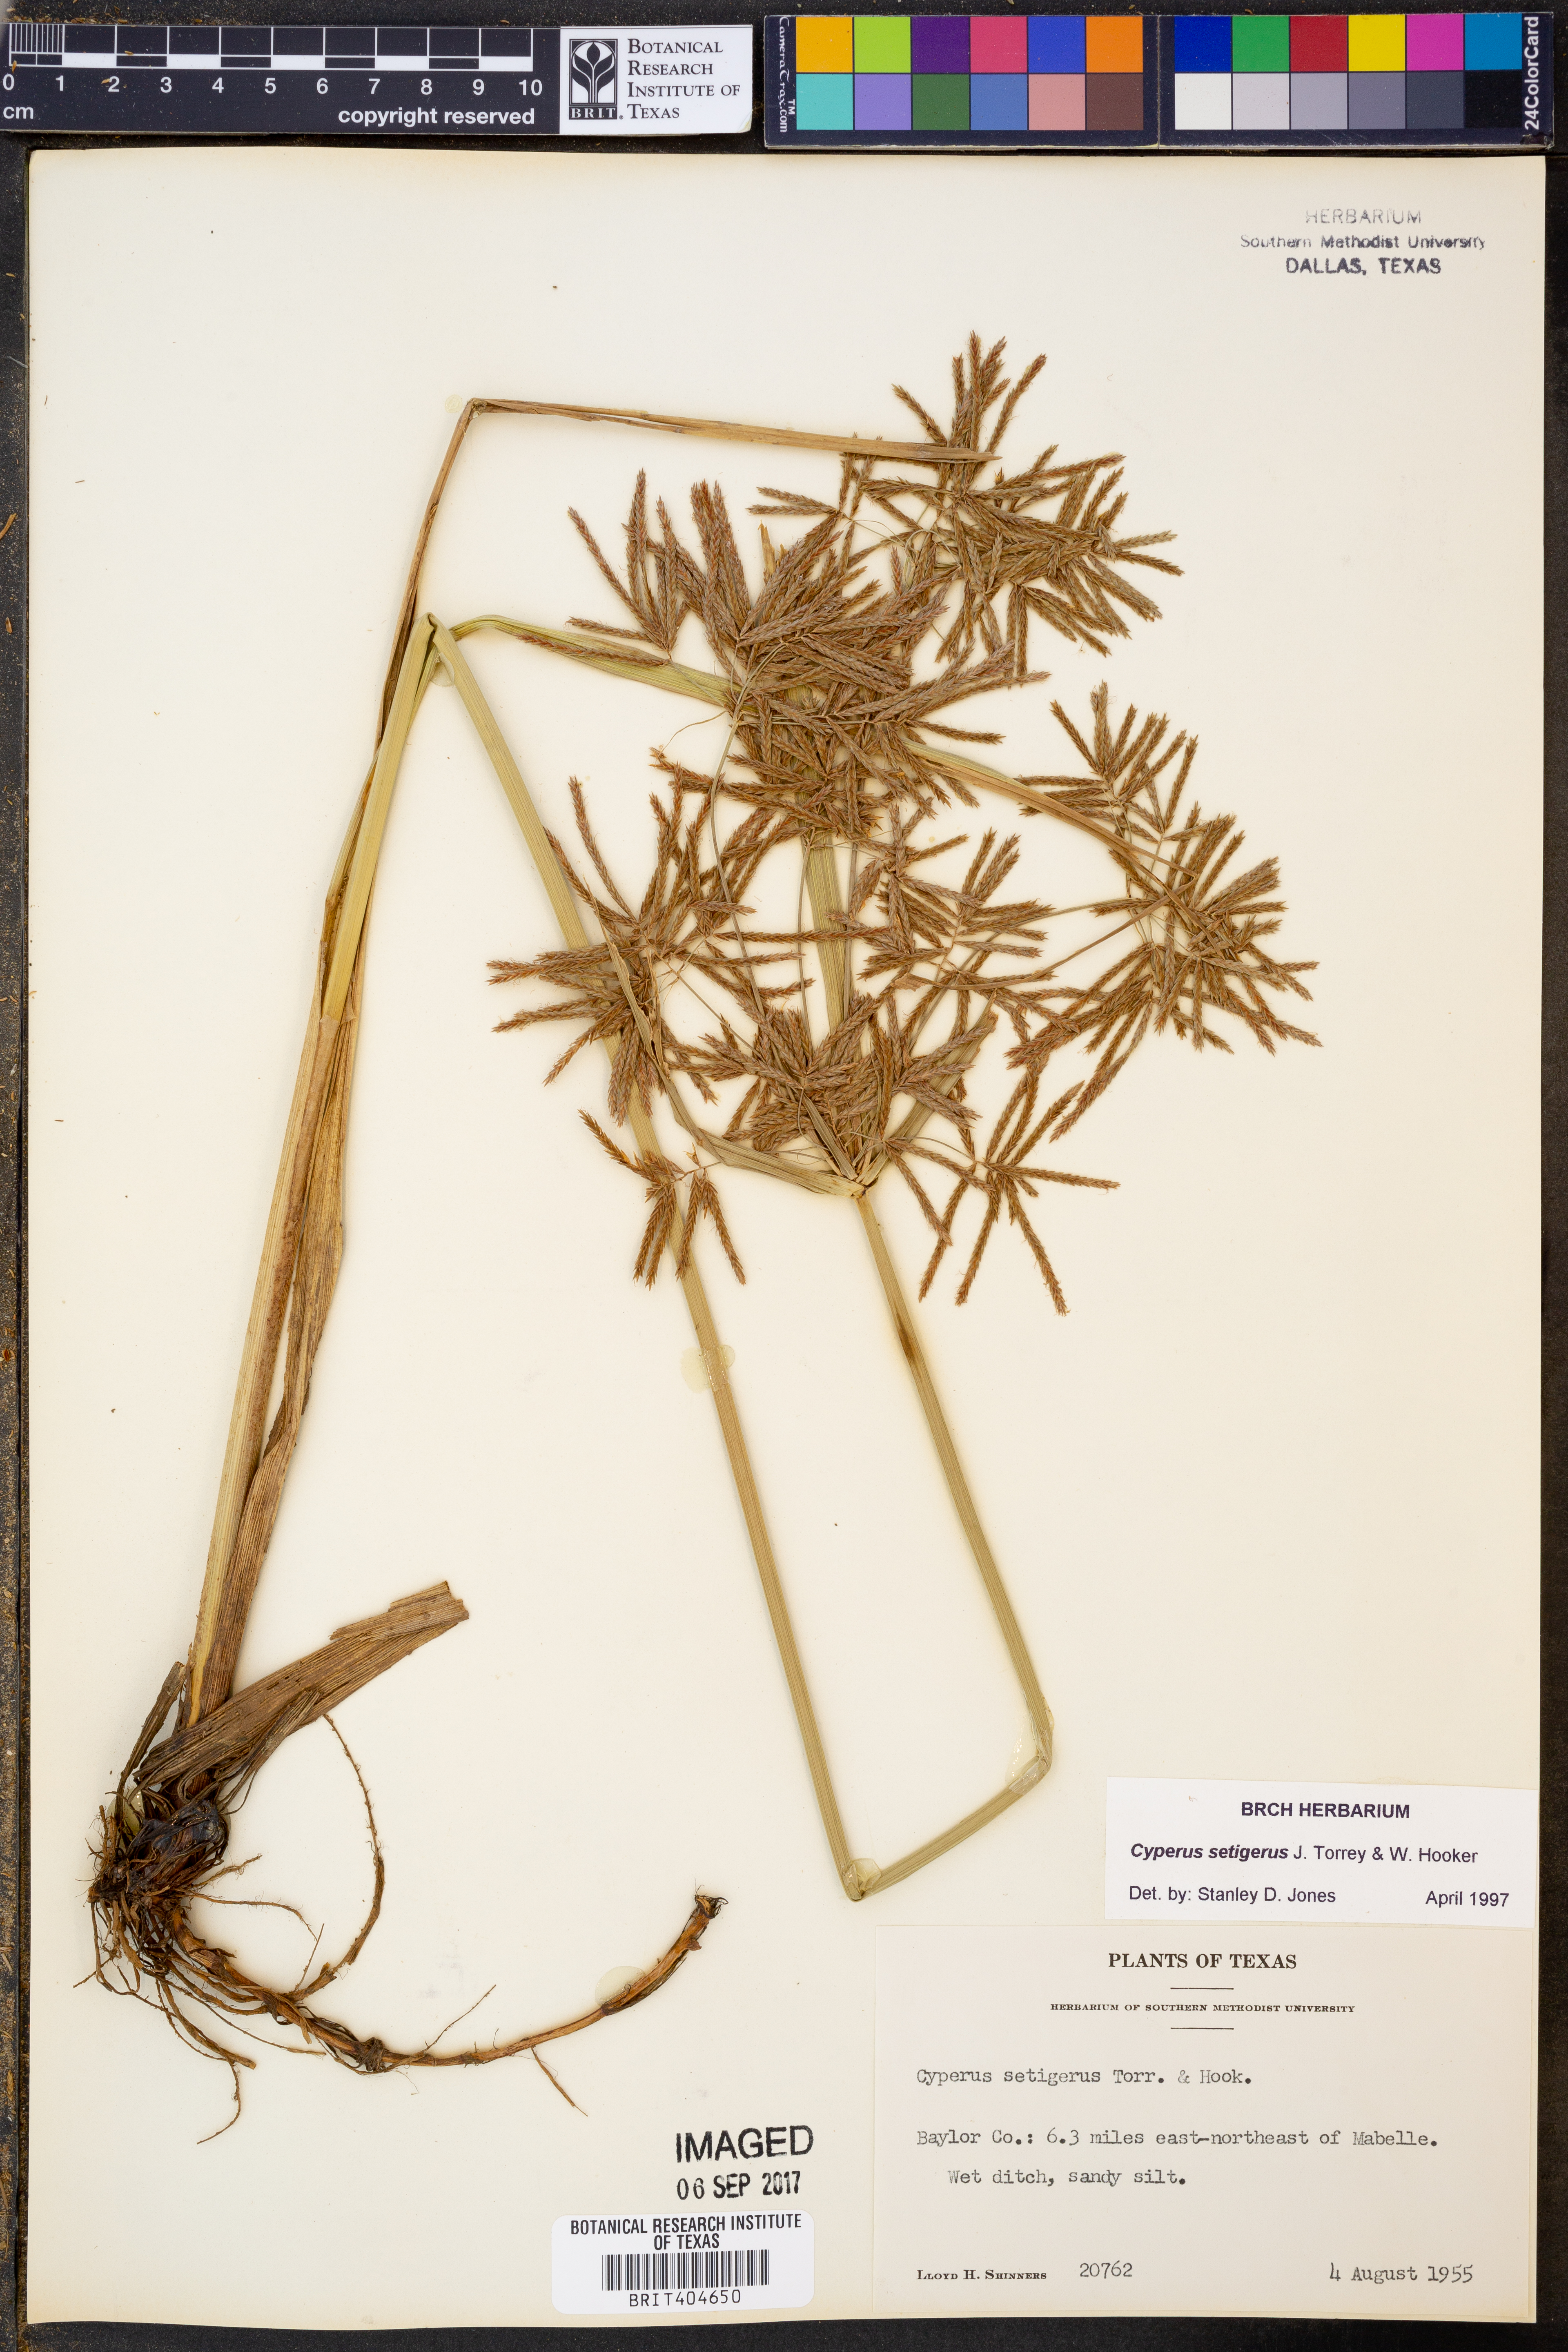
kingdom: Plantae
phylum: Tracheophyta
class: Liliopsida
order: Poales
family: Cyperaceae
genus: Cyperus
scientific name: Cyperus setigerus
